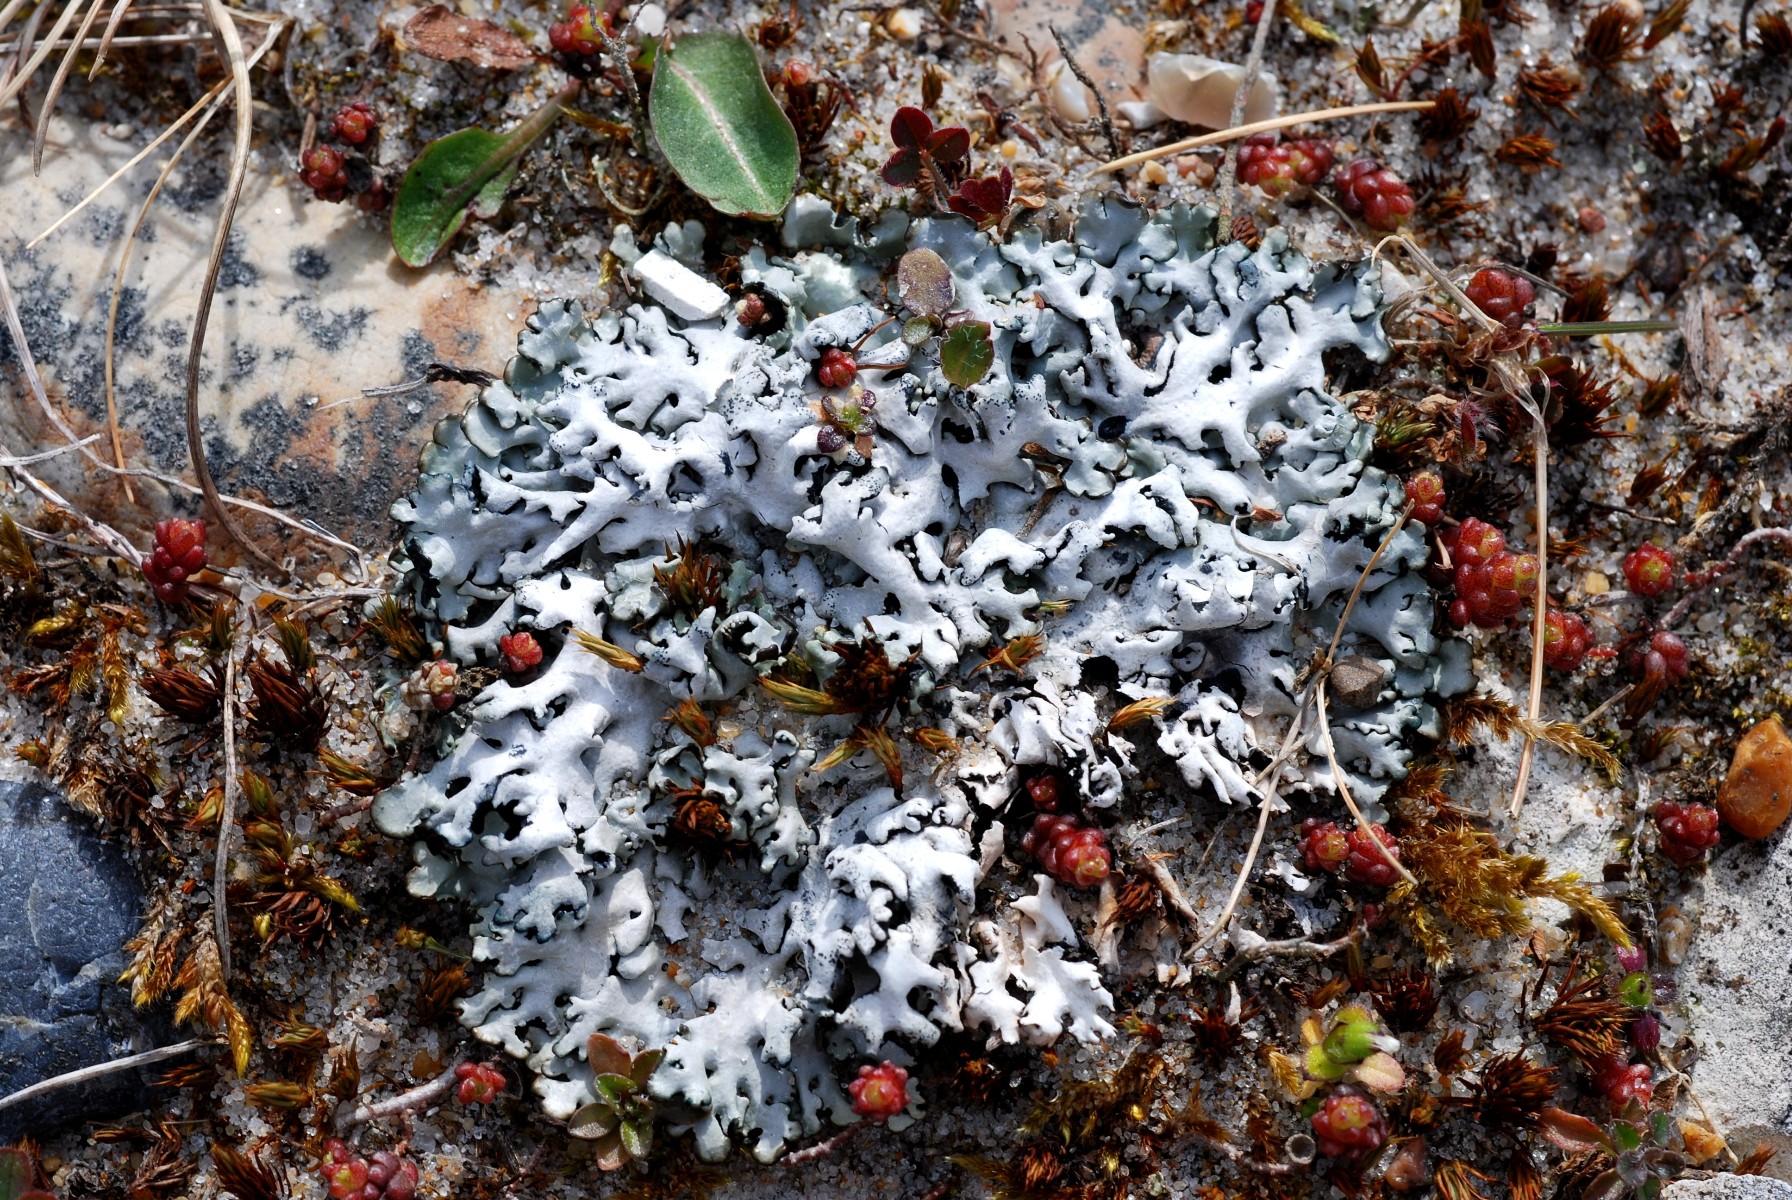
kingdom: Fungi
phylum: Ascomycota
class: Lecanoromycetes
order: Lecanorales
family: Parmeliaceae
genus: Hypogymnia
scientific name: Hypogymnia physodes
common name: almindelig kvistlav
